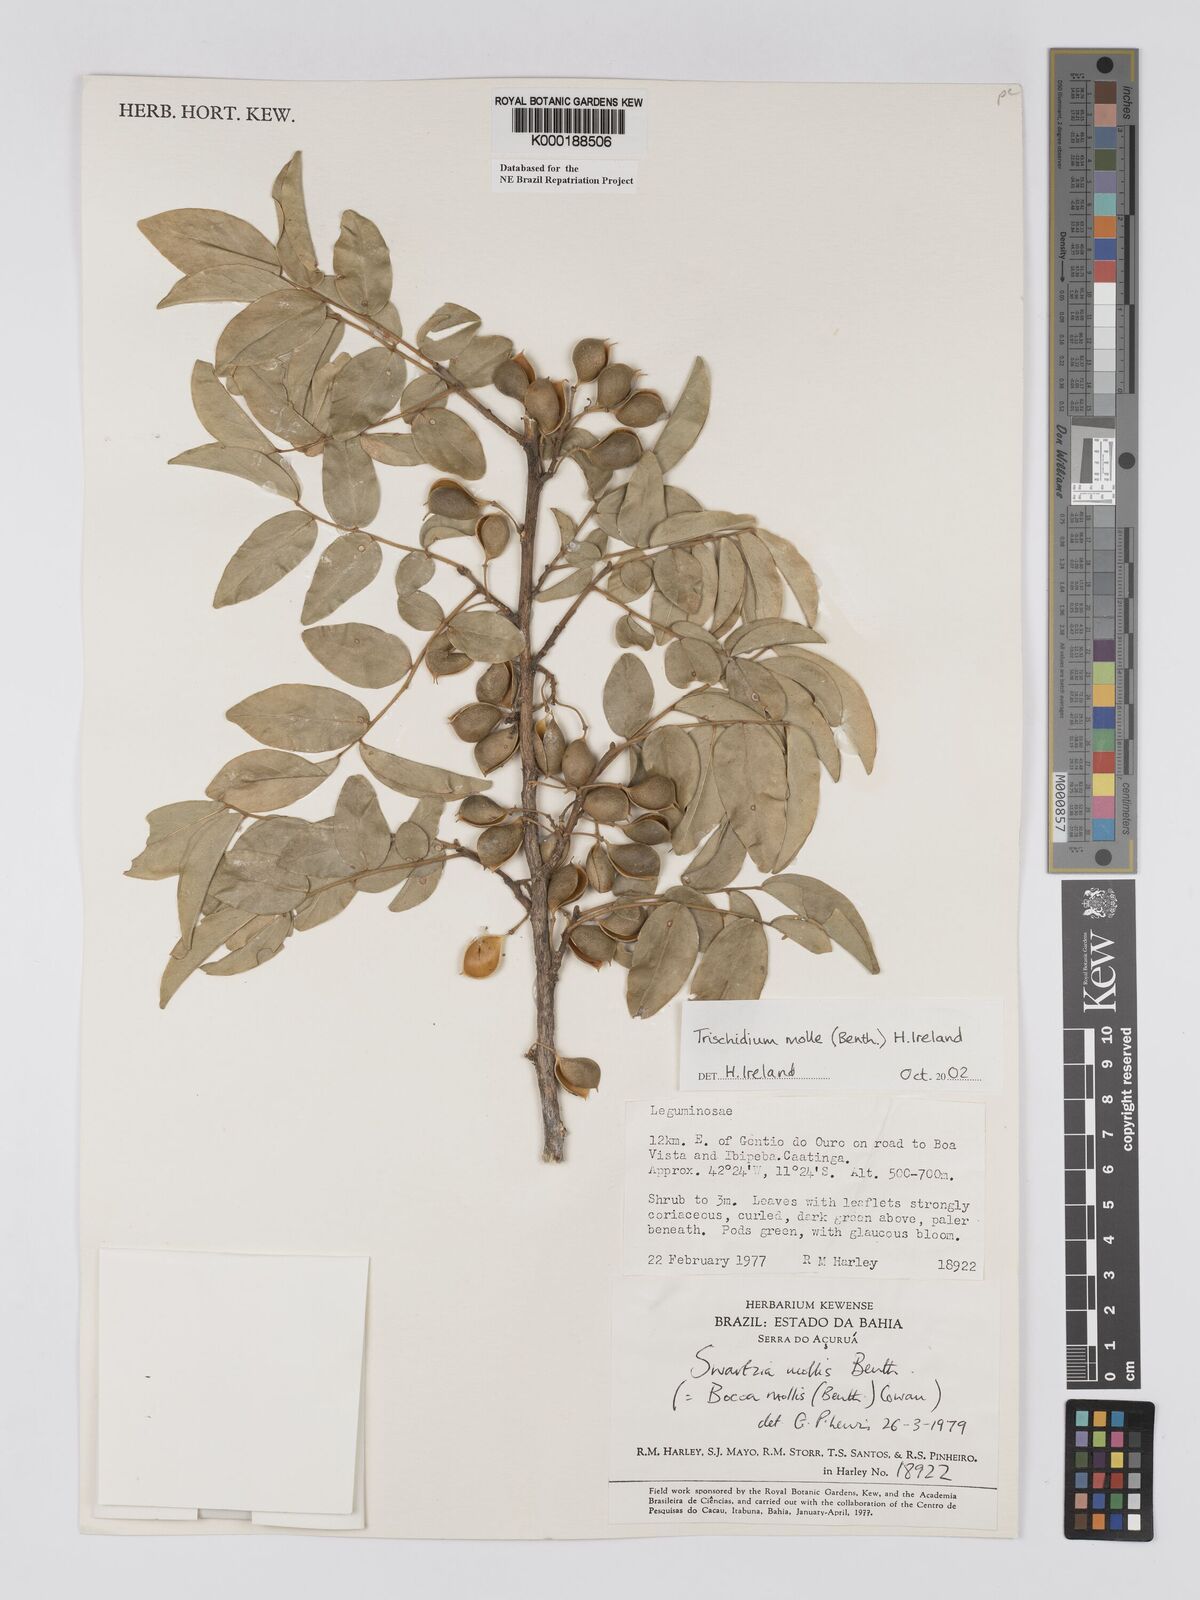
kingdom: Plantae
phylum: Tracheophyta
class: Magnoliopsida
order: Fabales
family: Fabaceae
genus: Trischidium
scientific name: Trischidium
